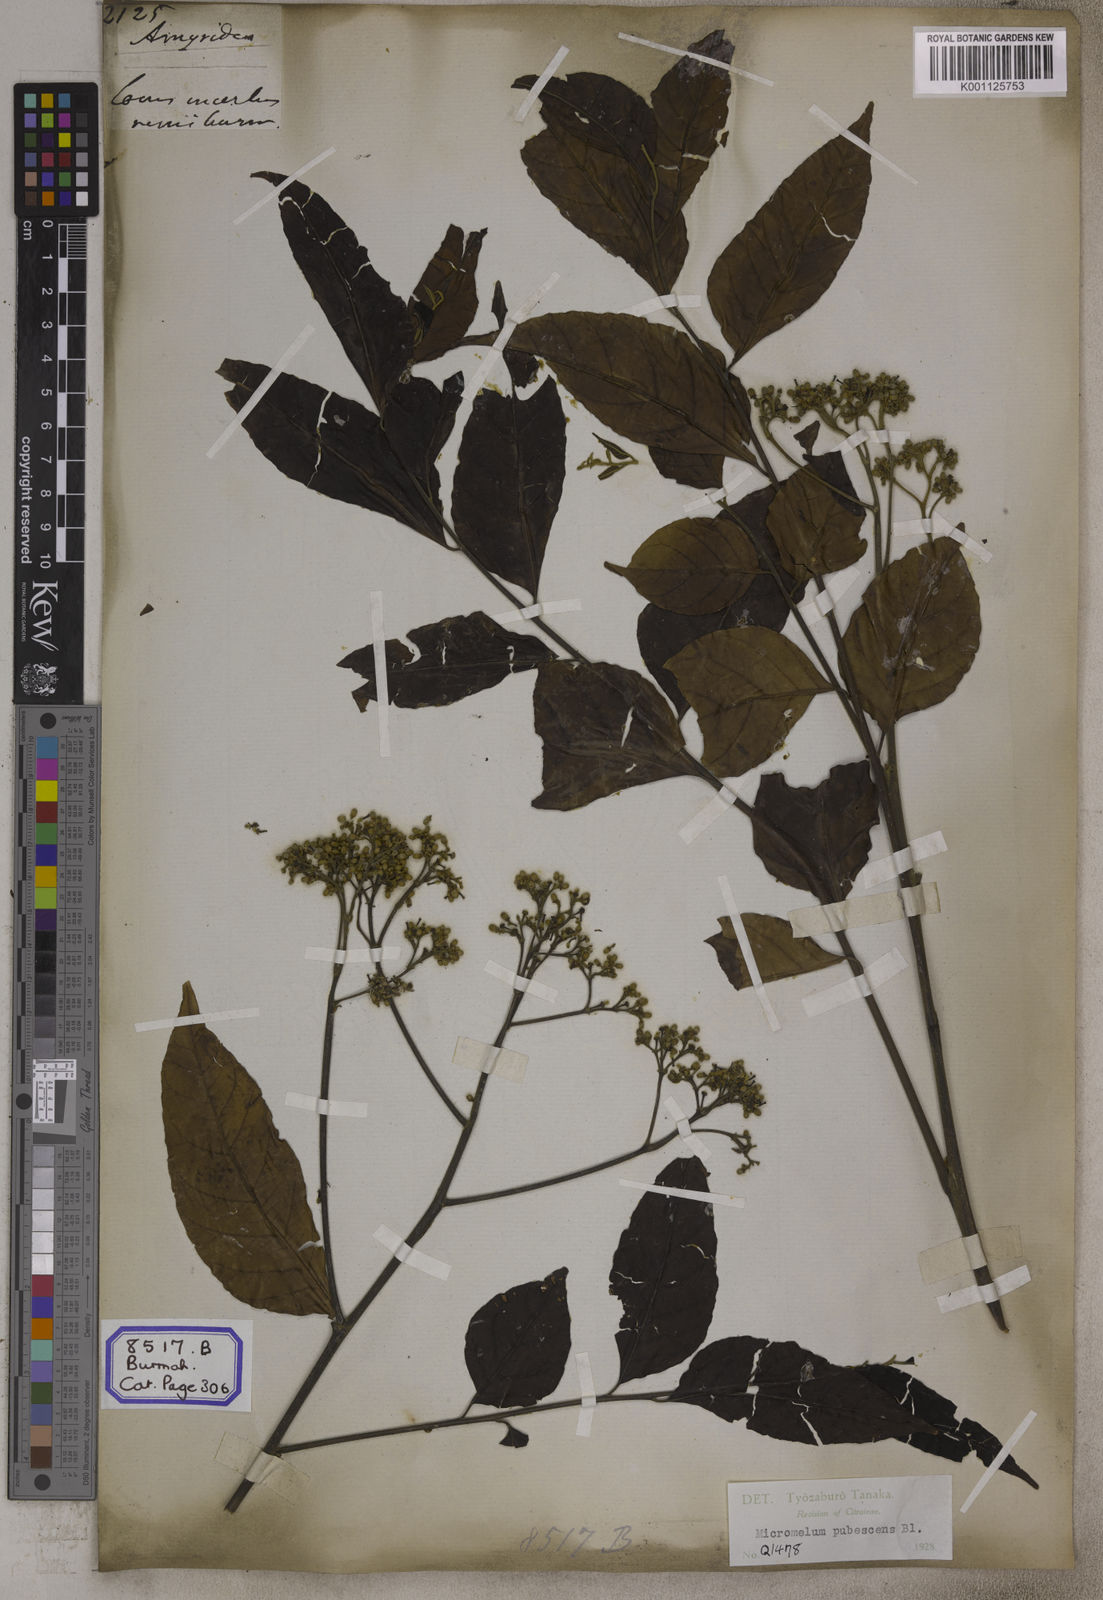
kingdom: Plantae
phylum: Tracheophyta
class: Magnoliopsida
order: Sapindales
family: Rutaceae
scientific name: Rutaceae
